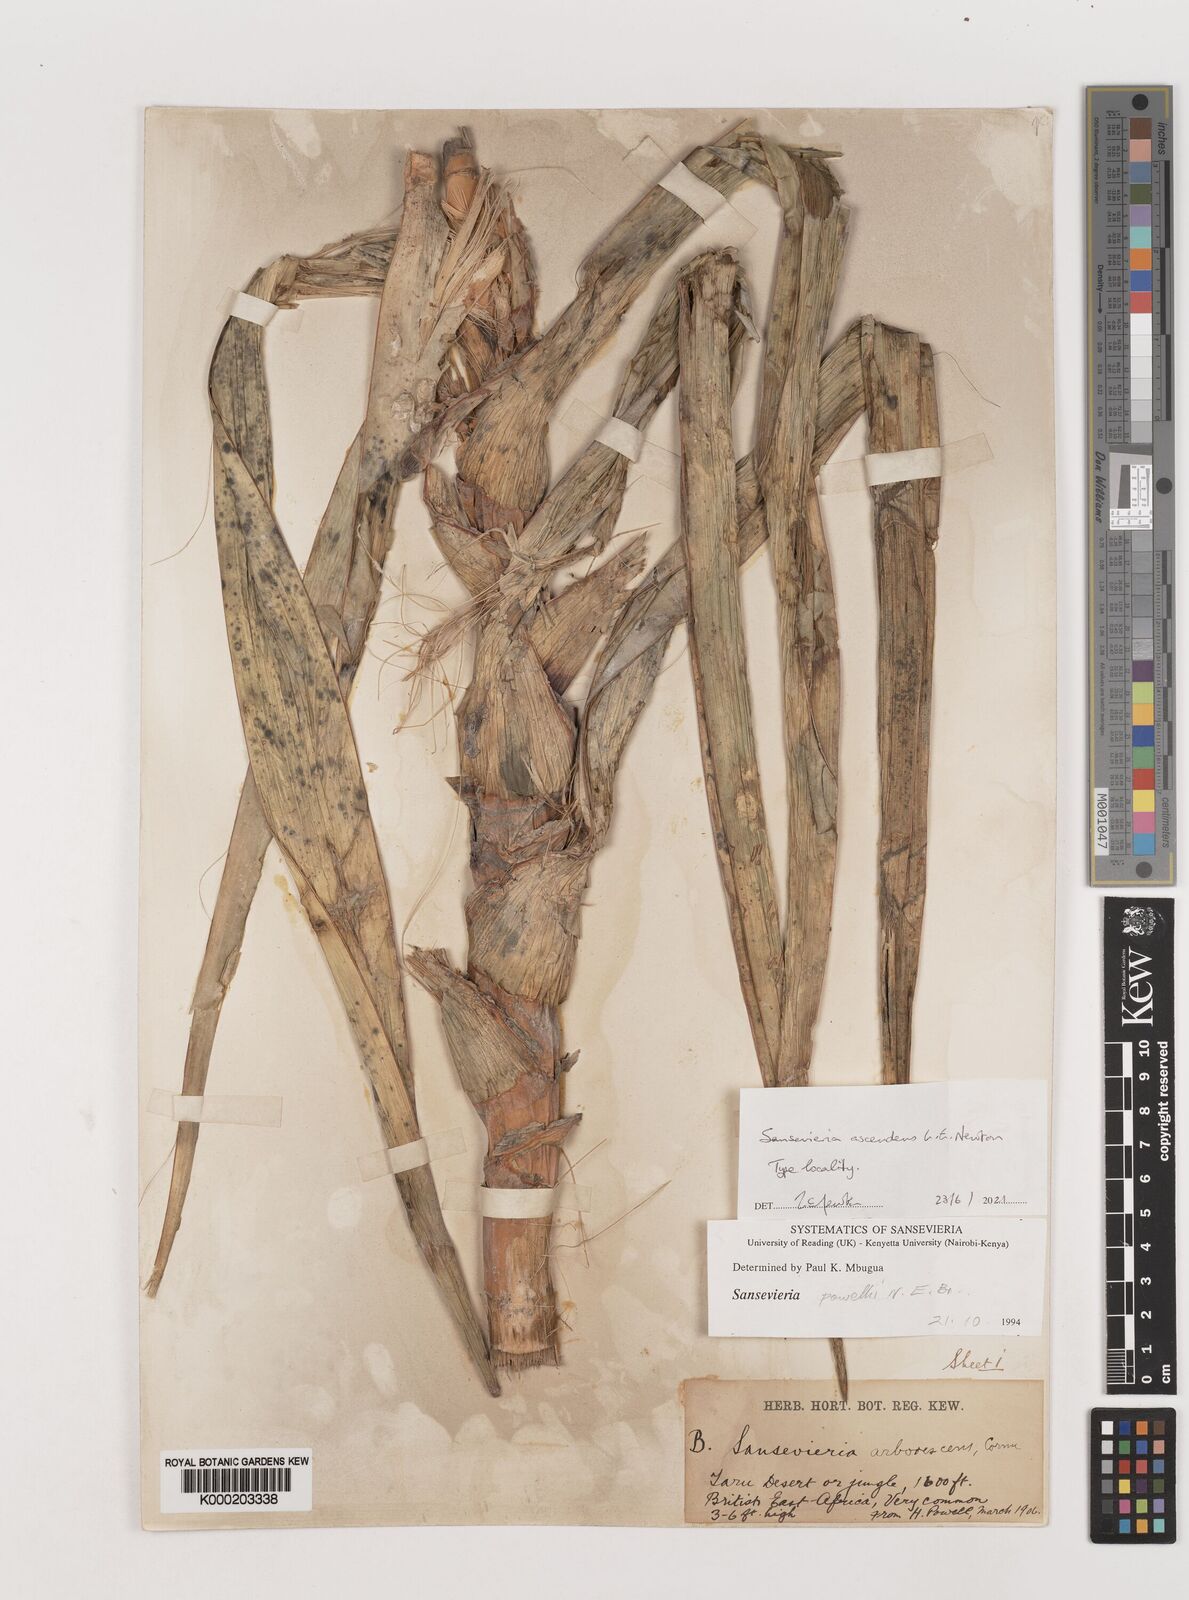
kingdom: Plantae
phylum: Tracheophyta
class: Liliopsida
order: Asparagales
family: Asparagaceae
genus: Dracaena
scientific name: Dracaena
